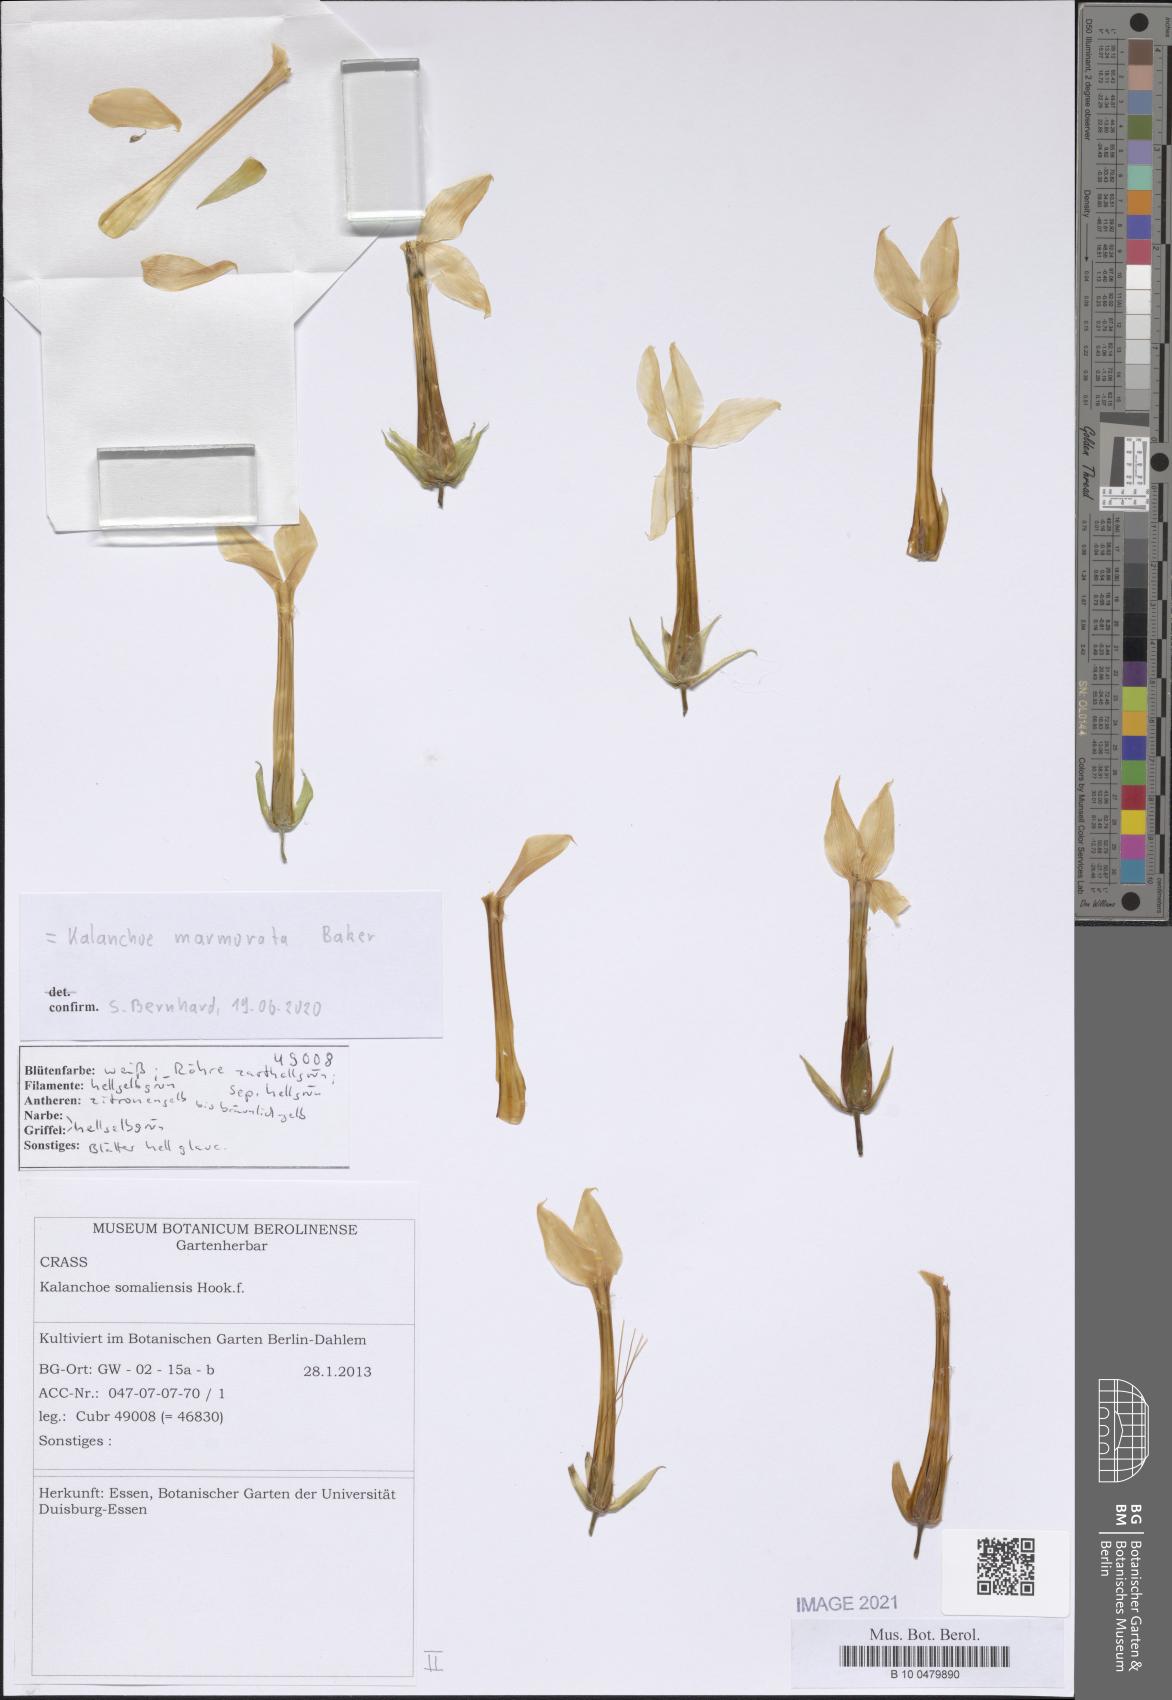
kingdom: Plantae
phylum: Tracheophyta
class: Magnoliopsida
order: Saxifragales
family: Crassulaceae
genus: Kalanchoe
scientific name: Kalanchoe marmorata
